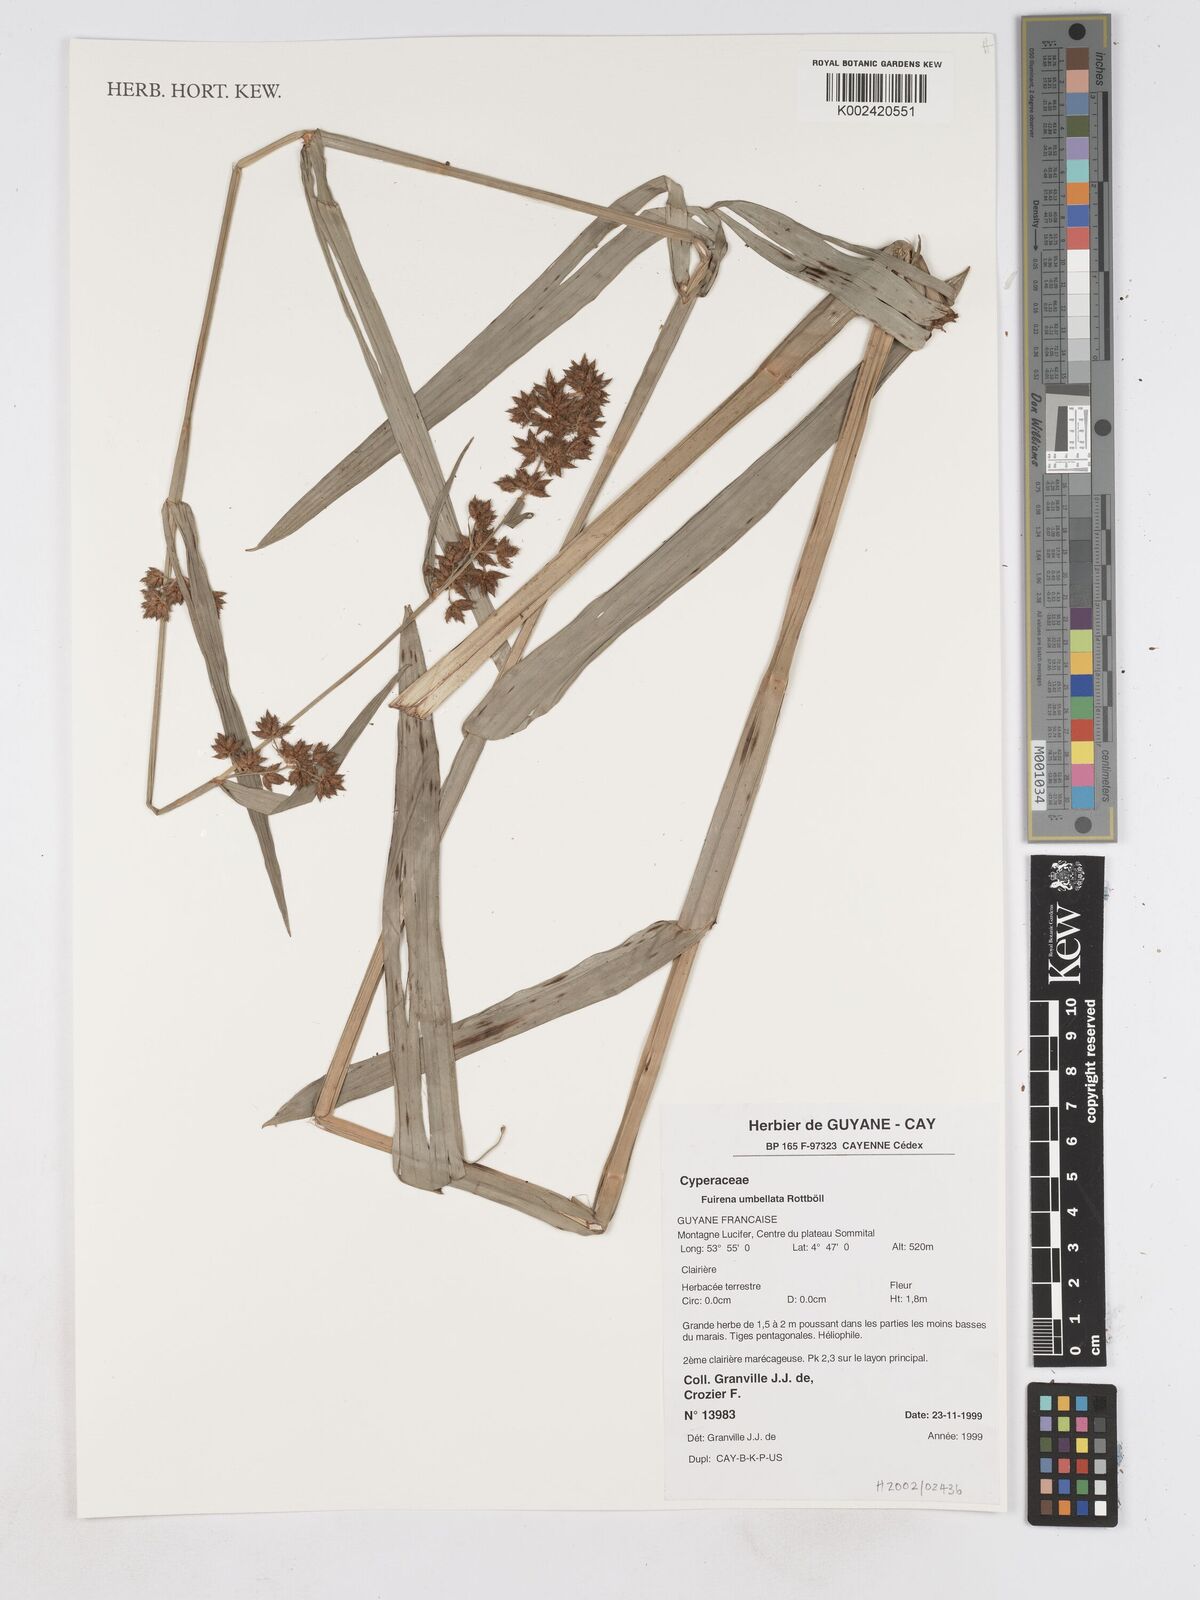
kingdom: Plantae
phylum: Tracheophyta
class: Liliopsida
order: Poales
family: Cyperaceae
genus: Fuirena
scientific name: Fuirena umbellata
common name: Yefen
